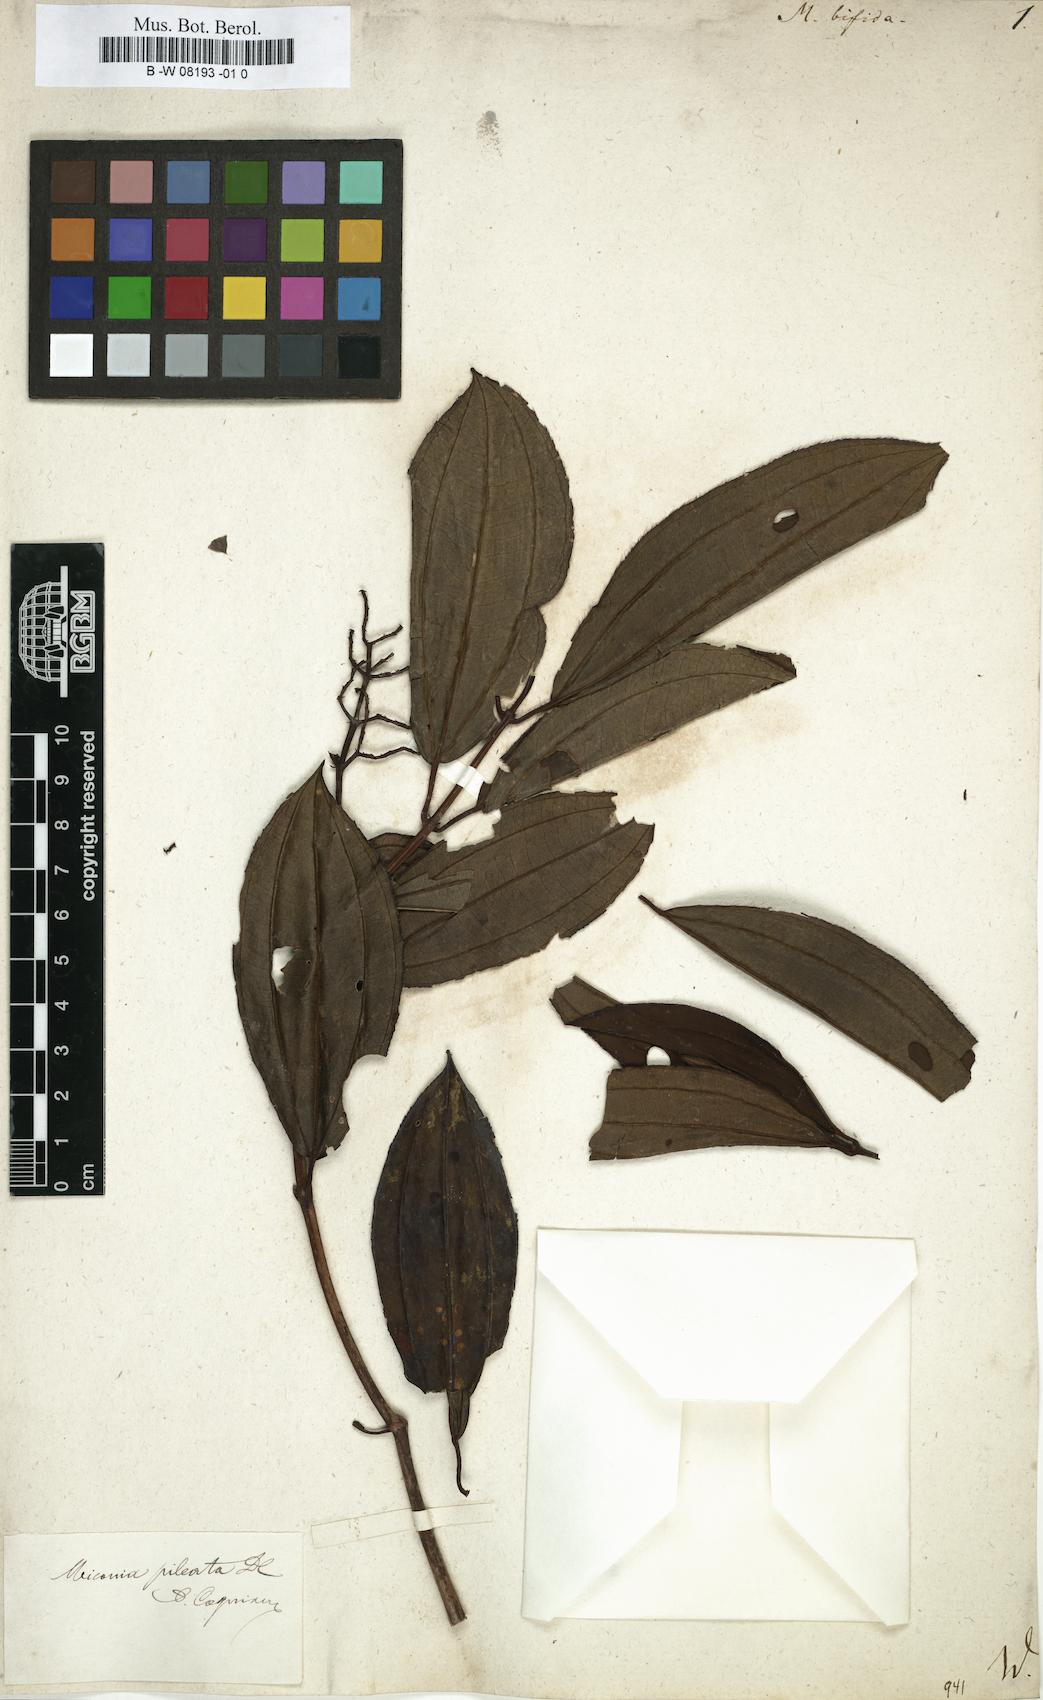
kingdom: Plantae
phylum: Tracheophyta
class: Magnoliopsida
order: Myrtales
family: Melastomataceae
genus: Melastoma
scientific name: Melastoma
